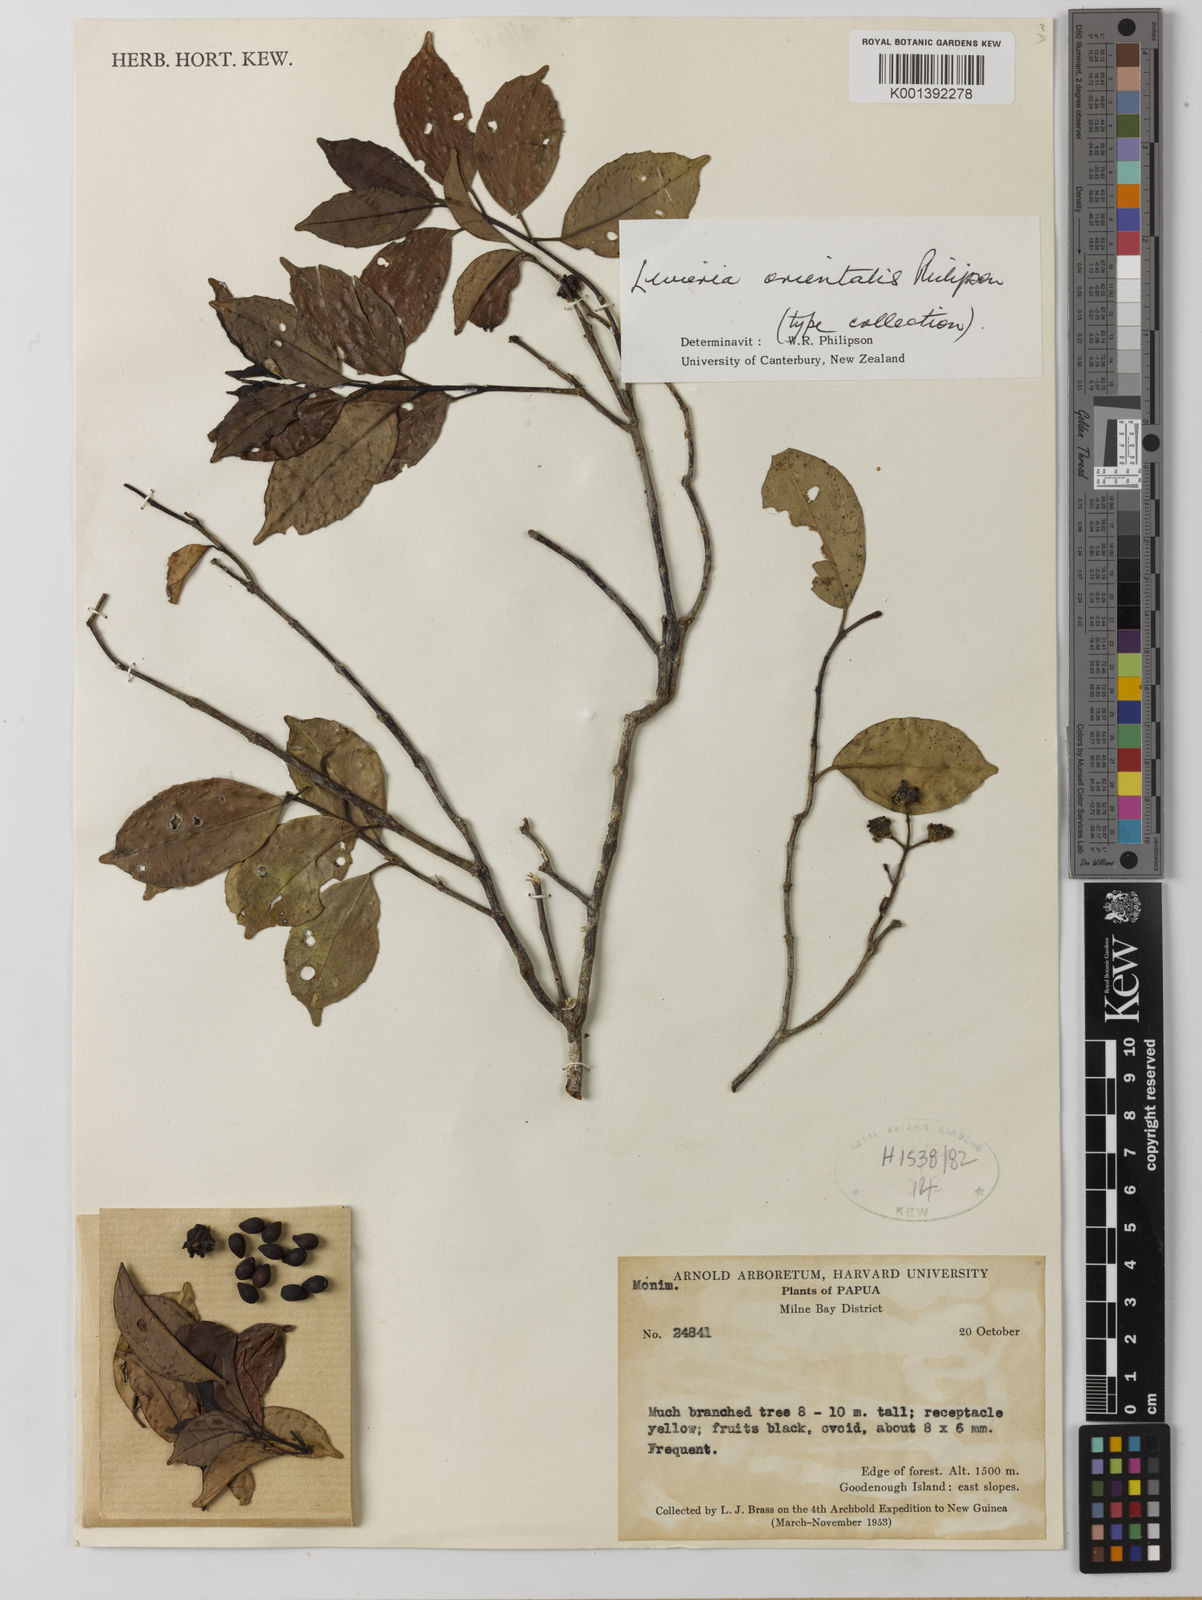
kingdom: Plantae
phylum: Tracheophyta
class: Magnoliopsida
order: Laurales
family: Monimiaceae
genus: Levieria
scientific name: Levieria orientalis
